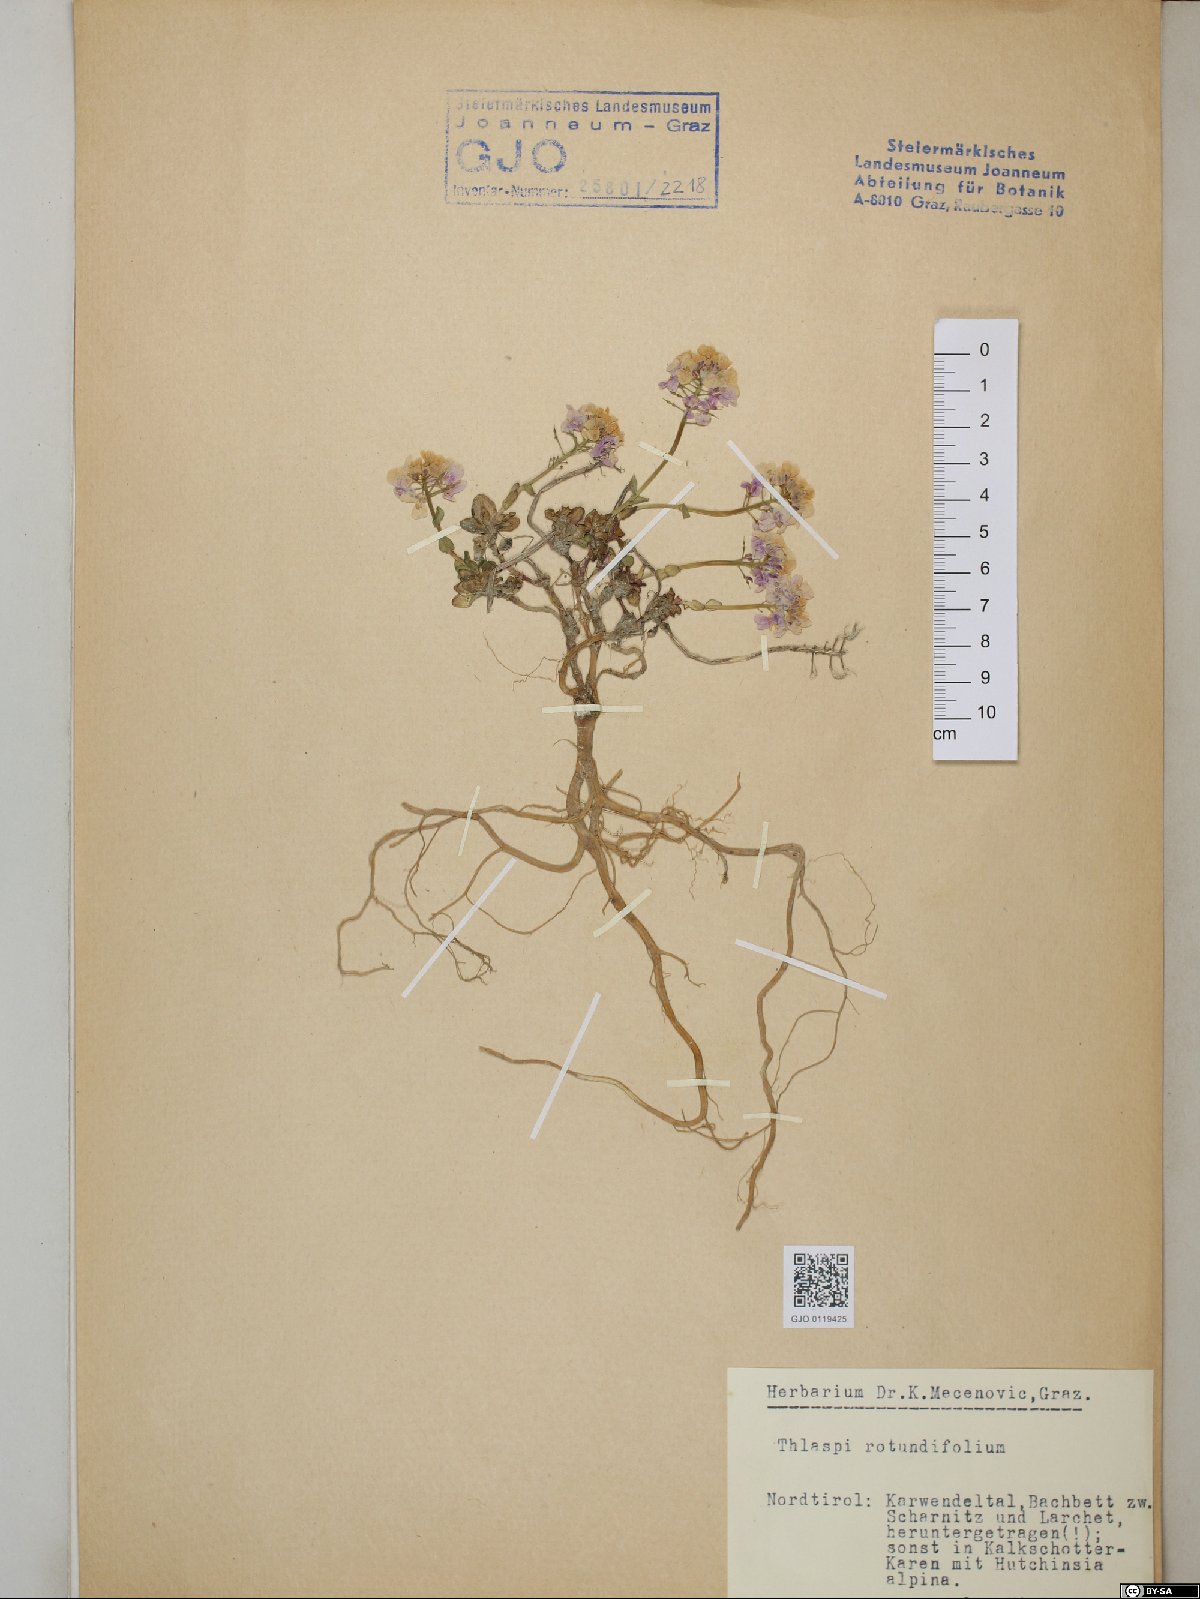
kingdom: Plantae
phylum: Tracheophyta
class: Magnoliopsida
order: Brassicales
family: Brassicaceae
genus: Noccaea
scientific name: Noccaea rotundifolia
